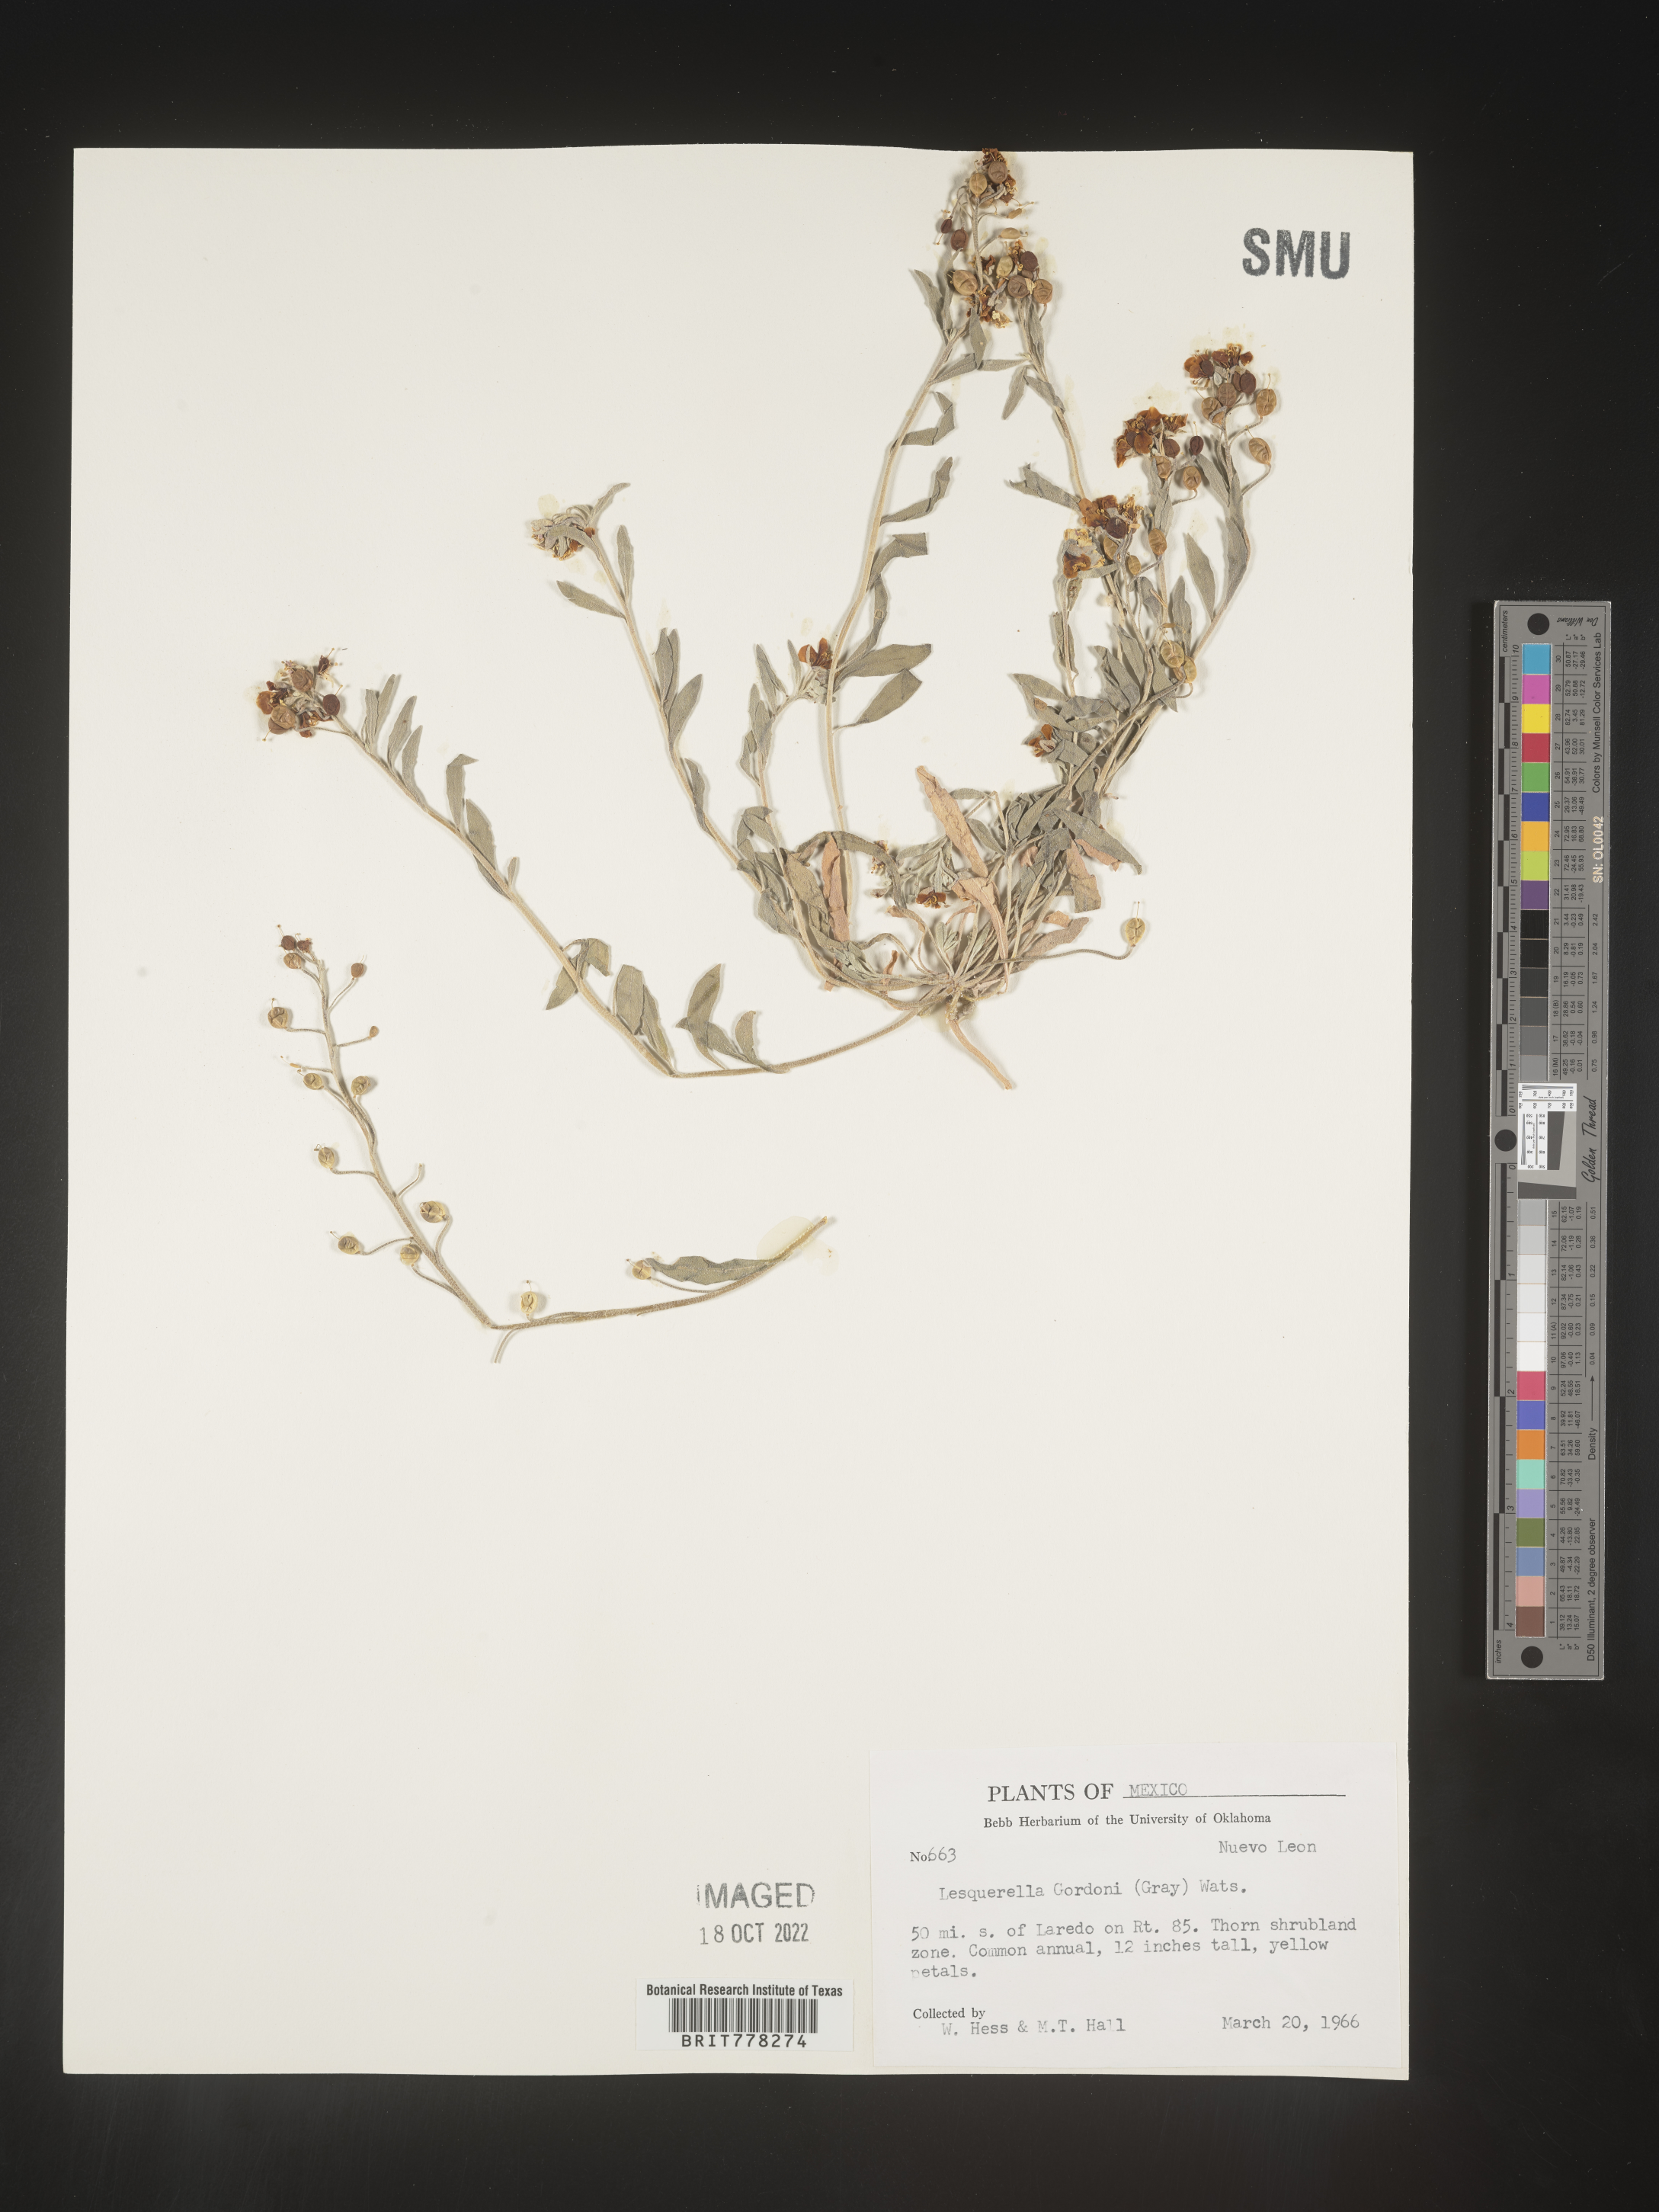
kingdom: Chromista
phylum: Cercozoa
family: Psammonobiotidae
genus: Lesquerella
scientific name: Lesquerella
